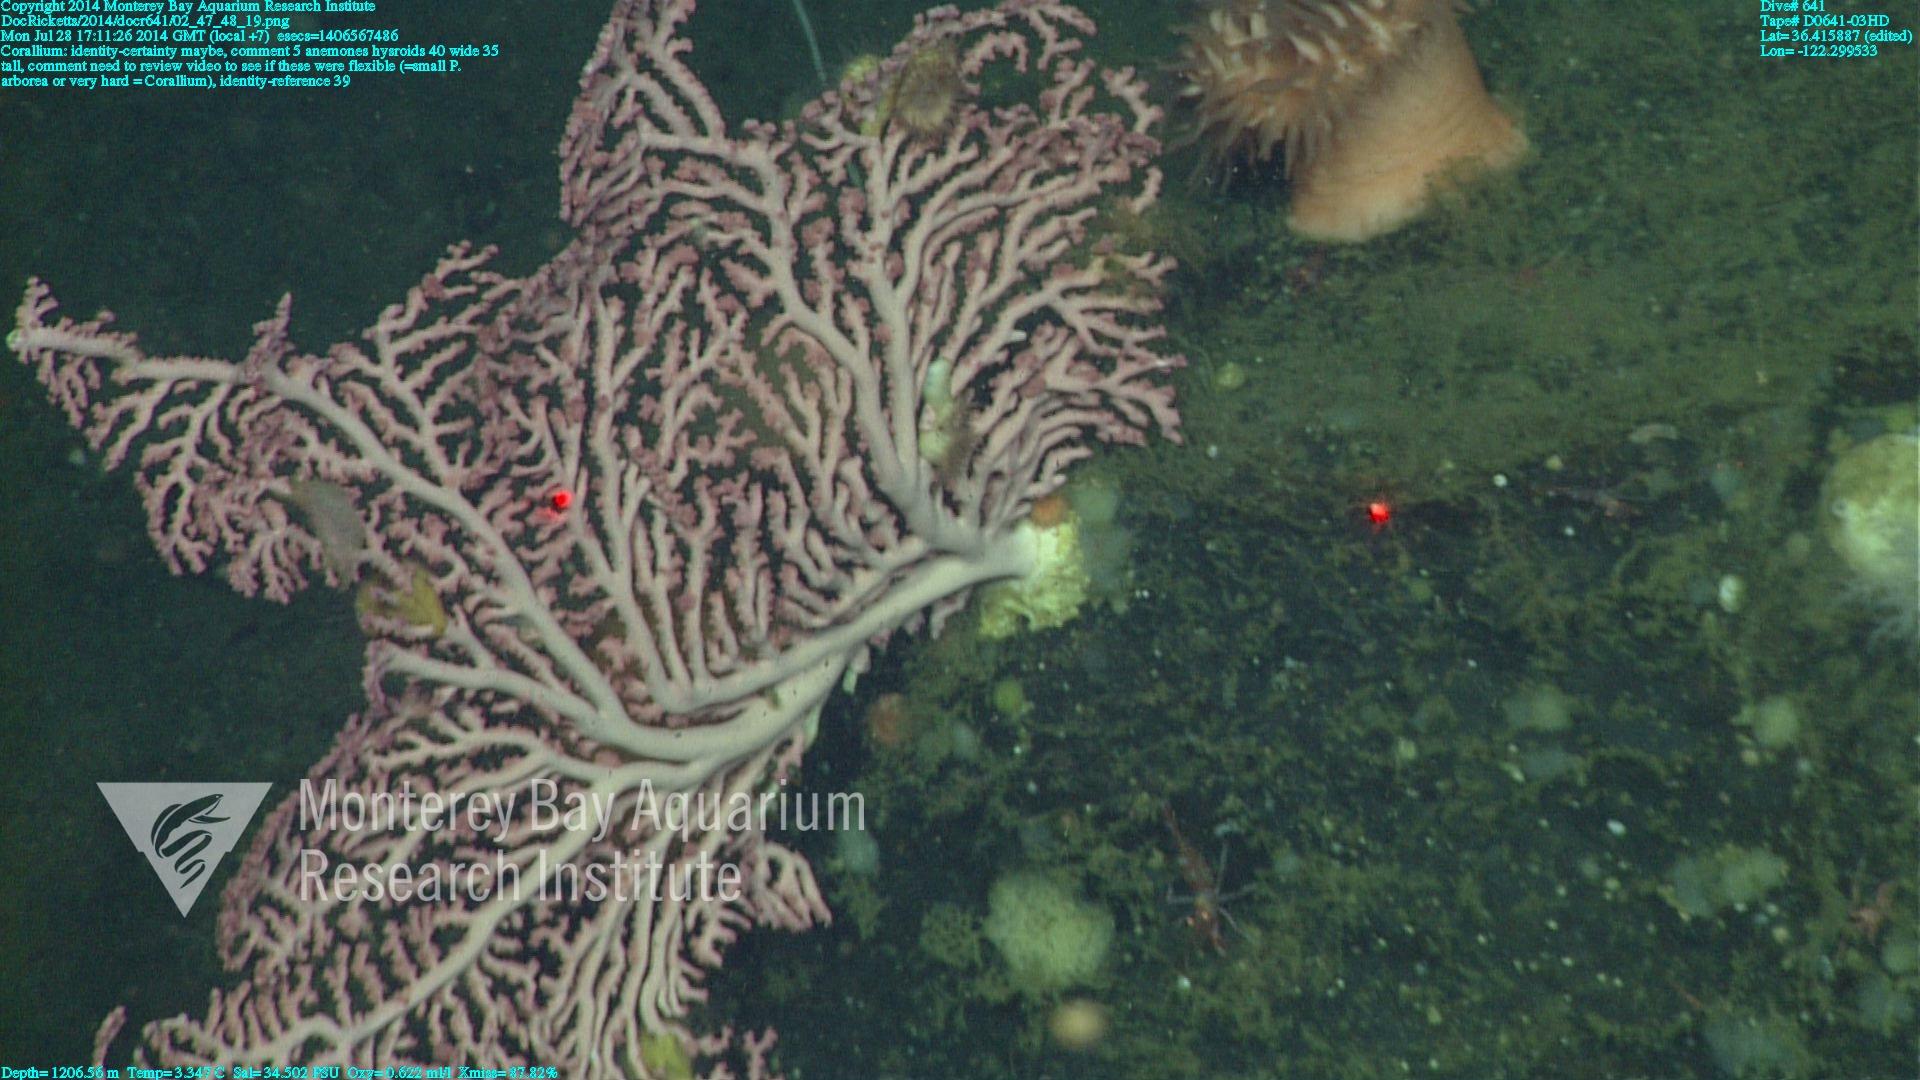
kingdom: Animalia
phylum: Cnidaria
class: Anthozoa
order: Scleralcyonacea
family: Coralliidae
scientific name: Coralliidae
